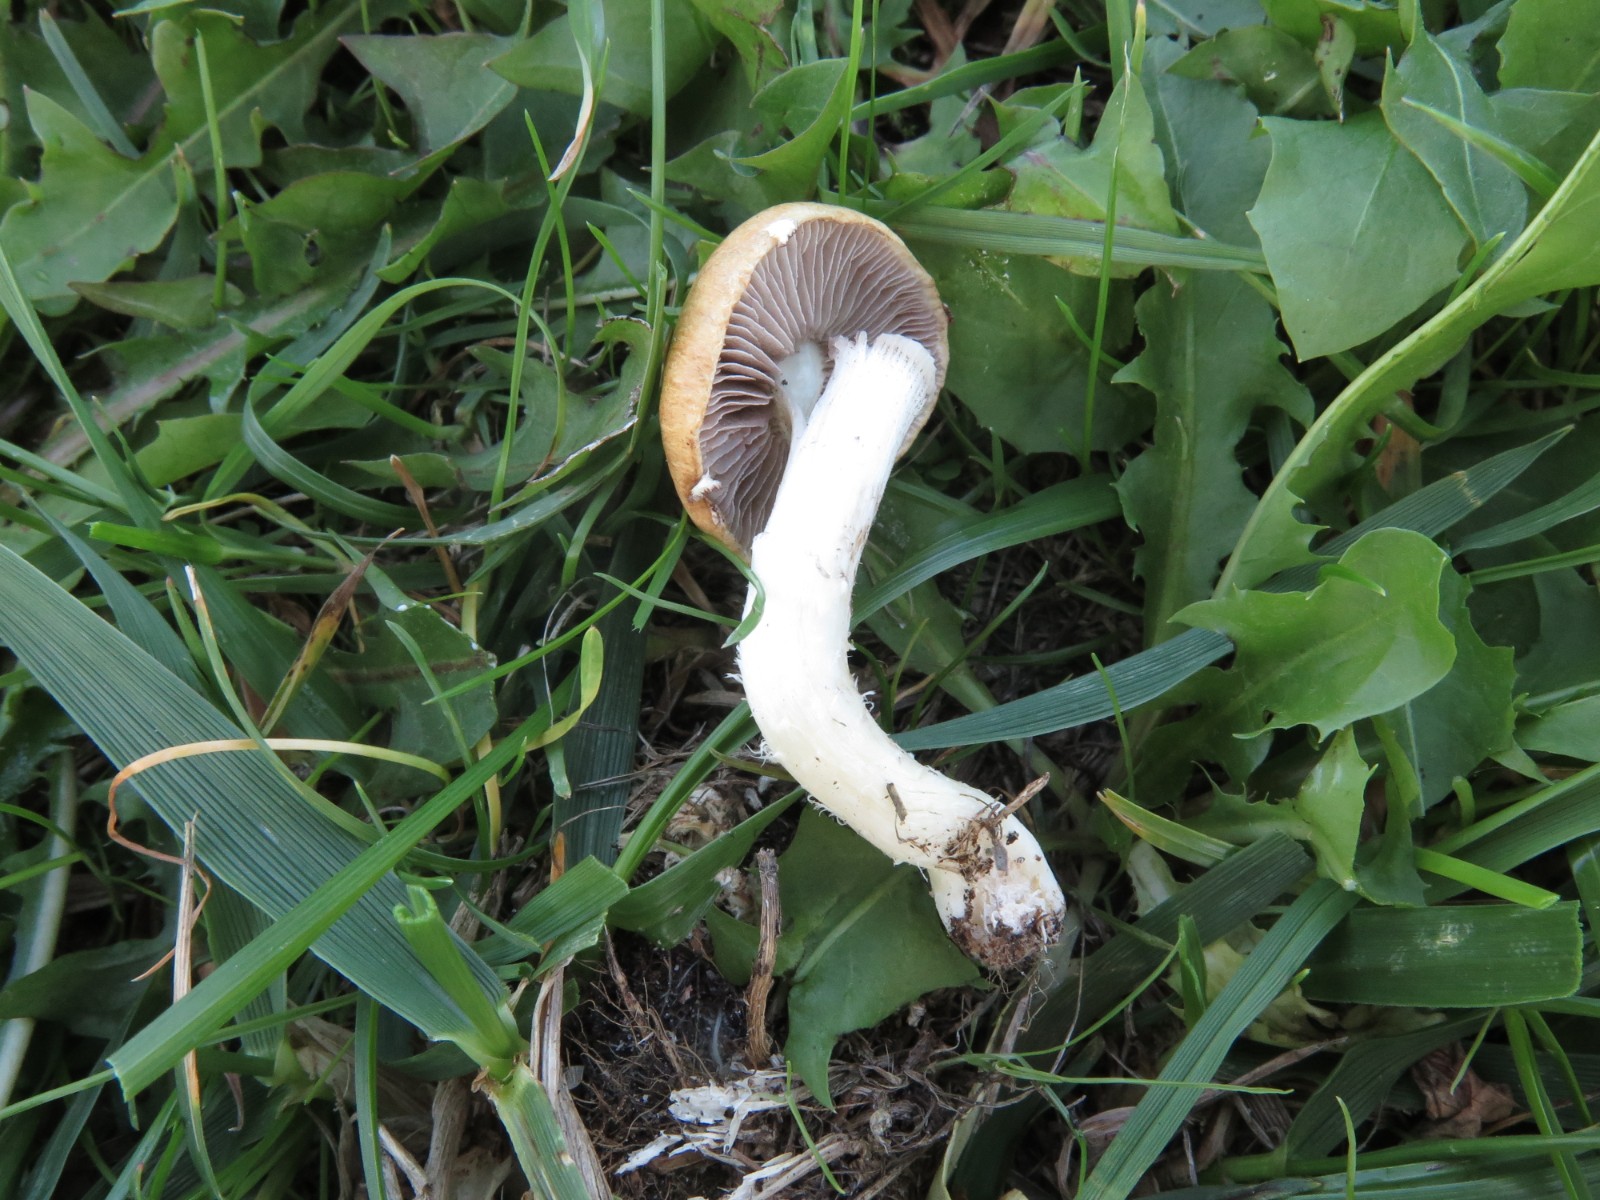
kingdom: Fungi
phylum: Basidiomycota
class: Agaricomycetes
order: Agaricales
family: Hymenogastraceae
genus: Psilocybe
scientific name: Psilocybe coronilla
